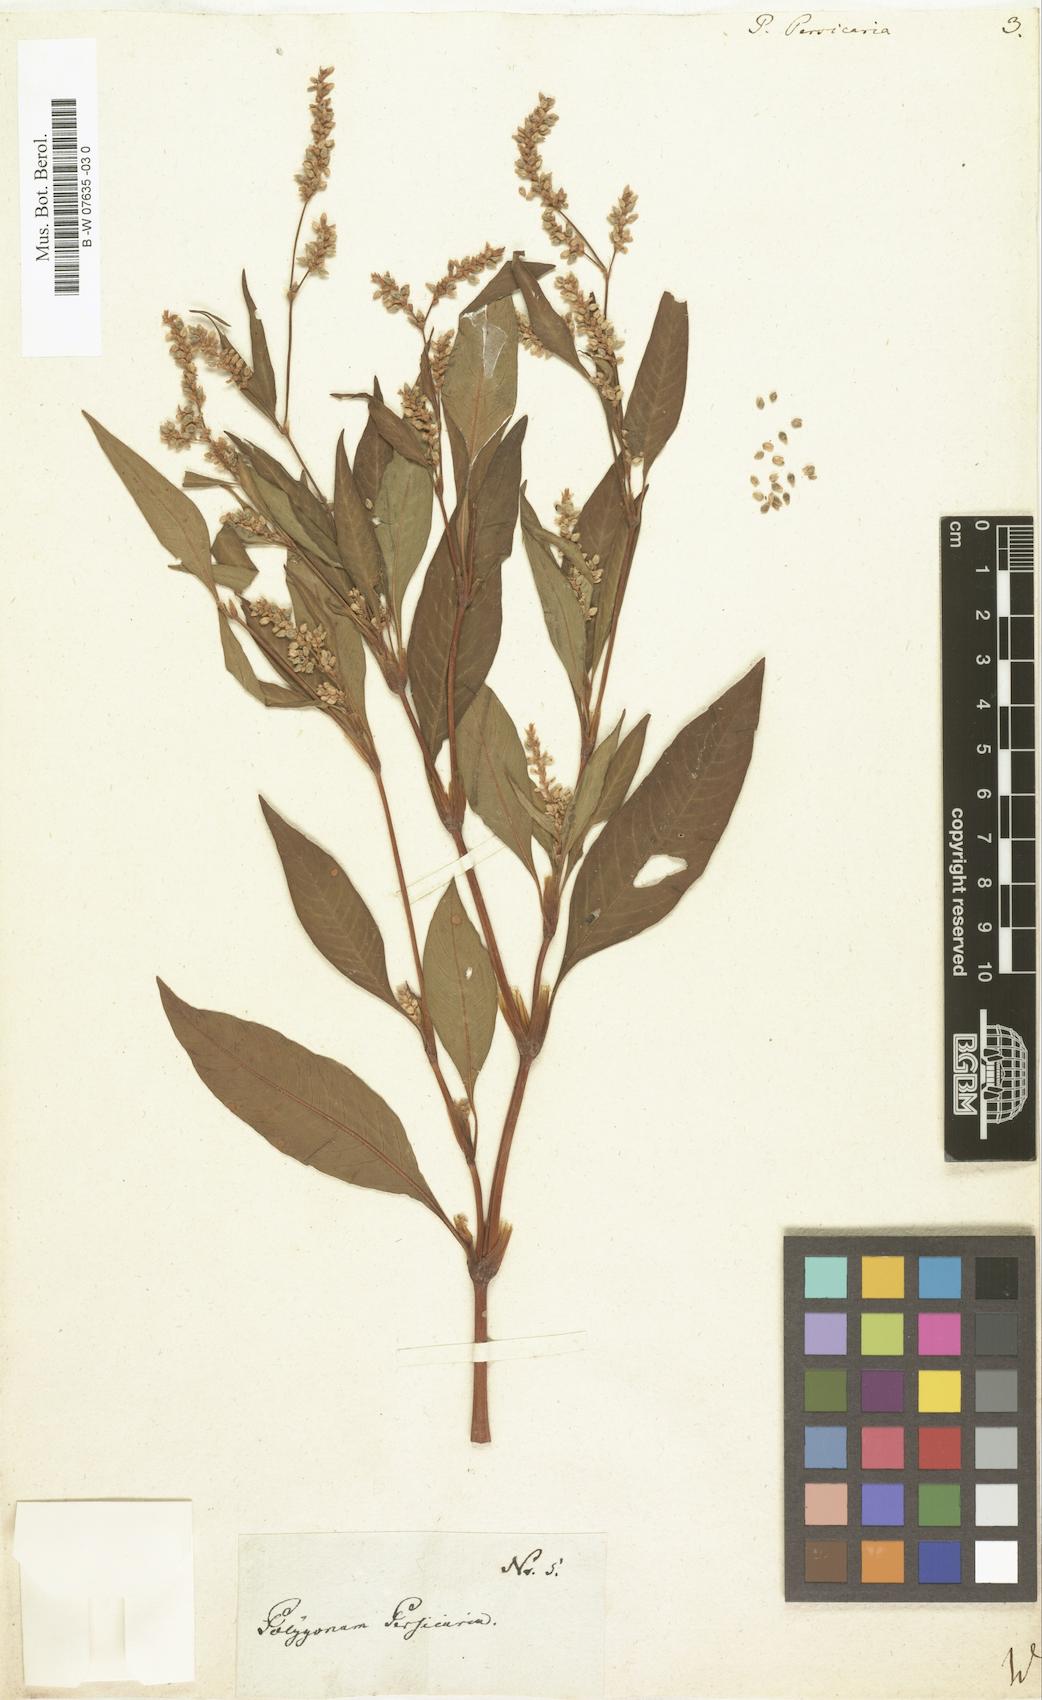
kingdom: Plantae
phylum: Tracheophyta
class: Magnoliopsida
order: Caryophyllales
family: Polygonaceae
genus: Polygonum
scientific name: Polygonum persicaria
